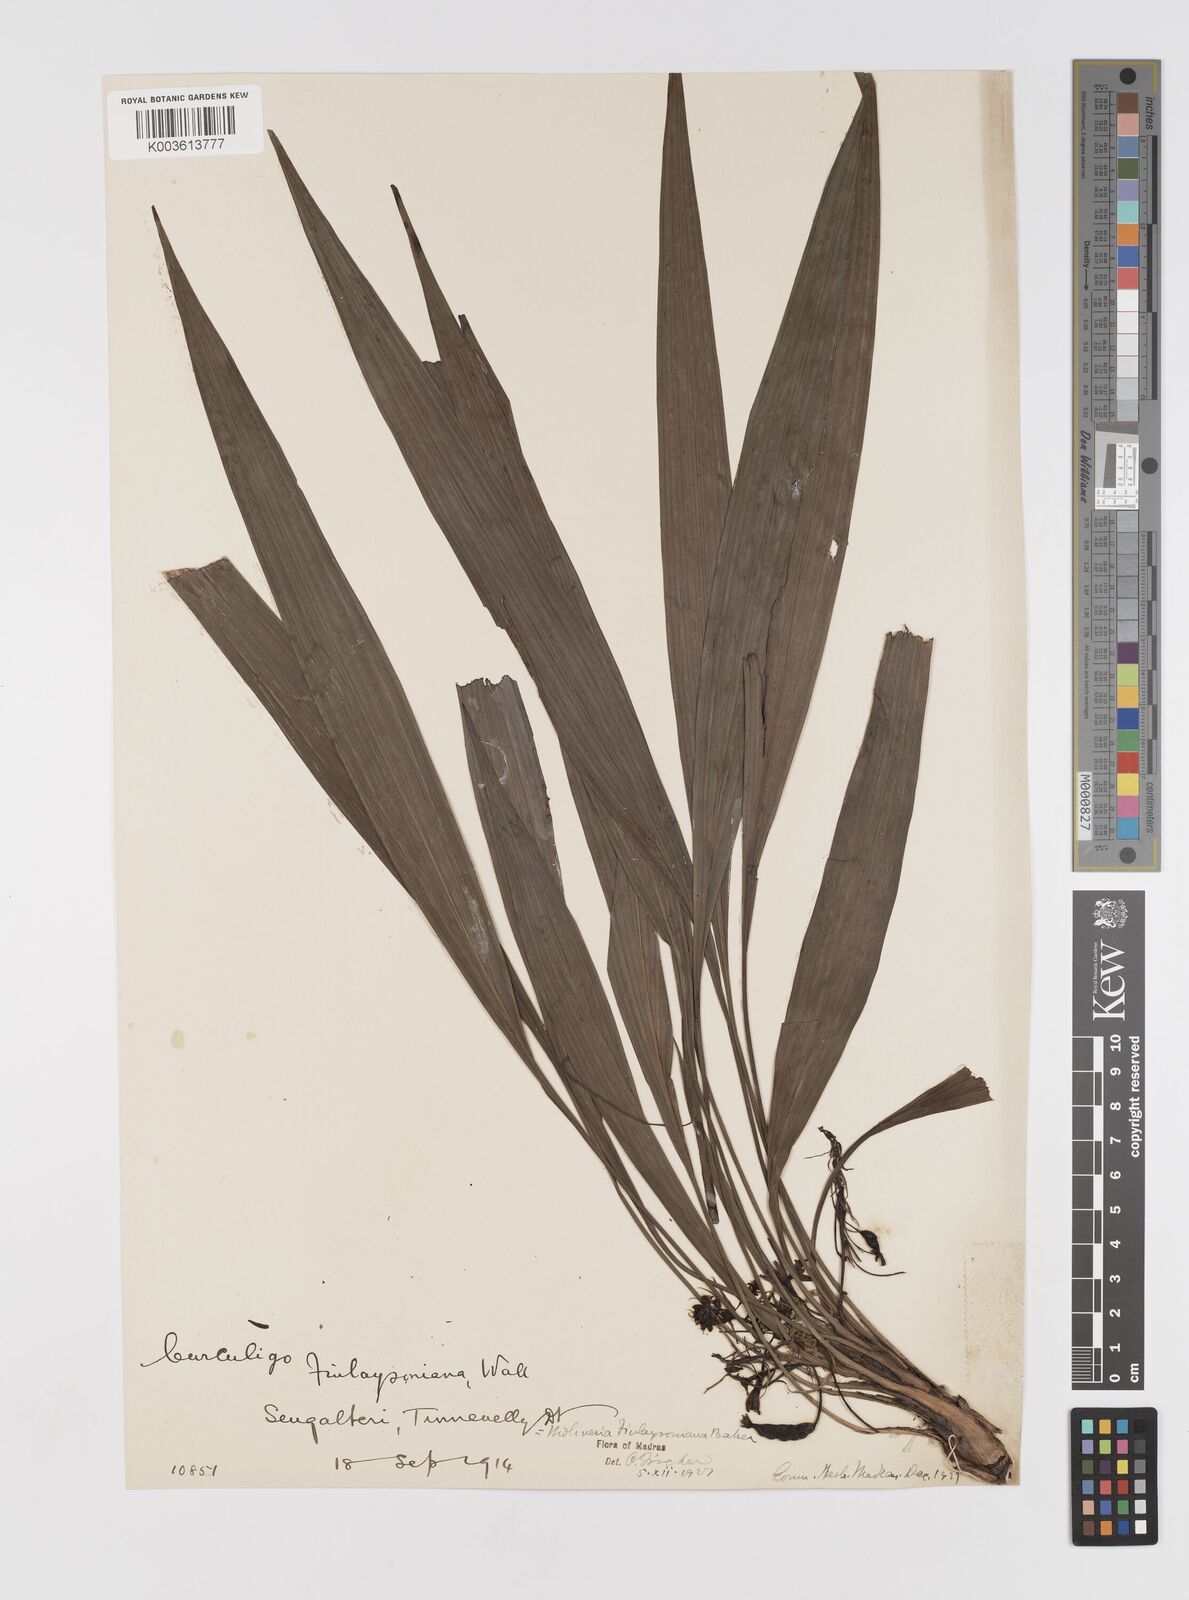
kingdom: Plantae
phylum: Tracheophyta
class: Liliopsida
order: Asparagales
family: Hypoxidaceae
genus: Curculigo
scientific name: Curculigo trichocarpa
